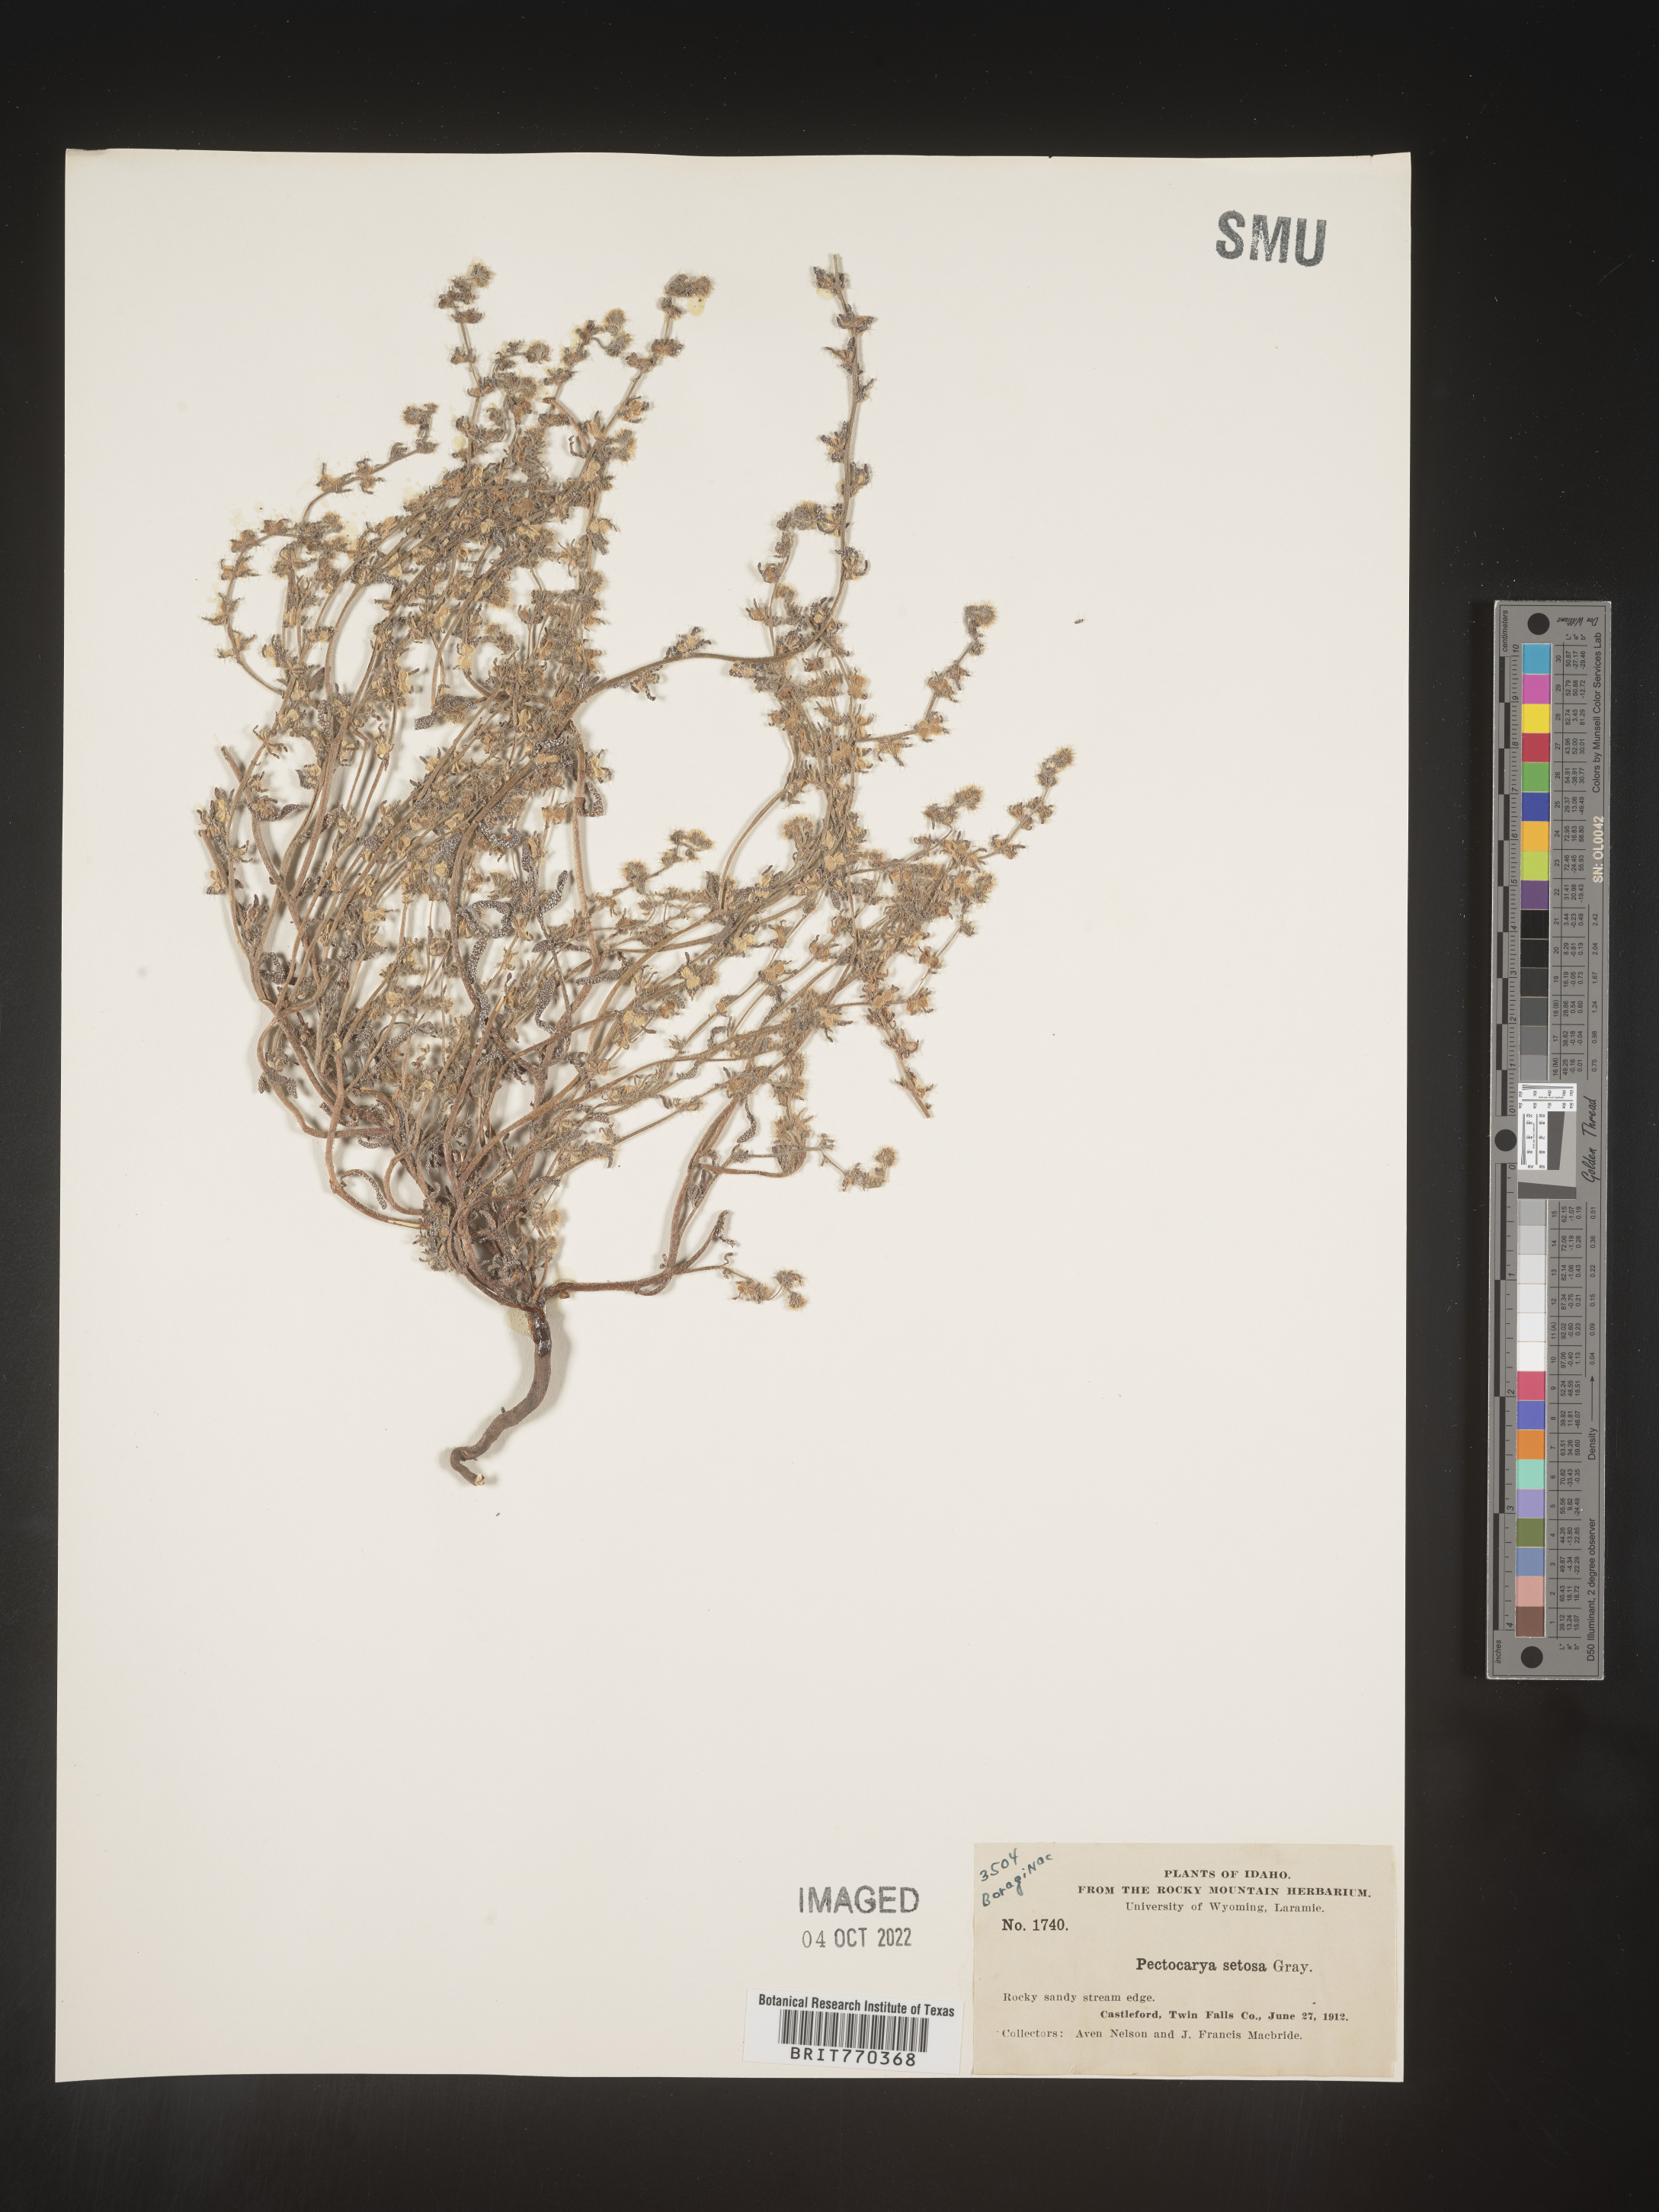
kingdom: Plantae
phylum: Tracheophyta
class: Magnoliopsida
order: Boraginales
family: Boraginaceae
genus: Pectocarya
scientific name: Pectocarya
